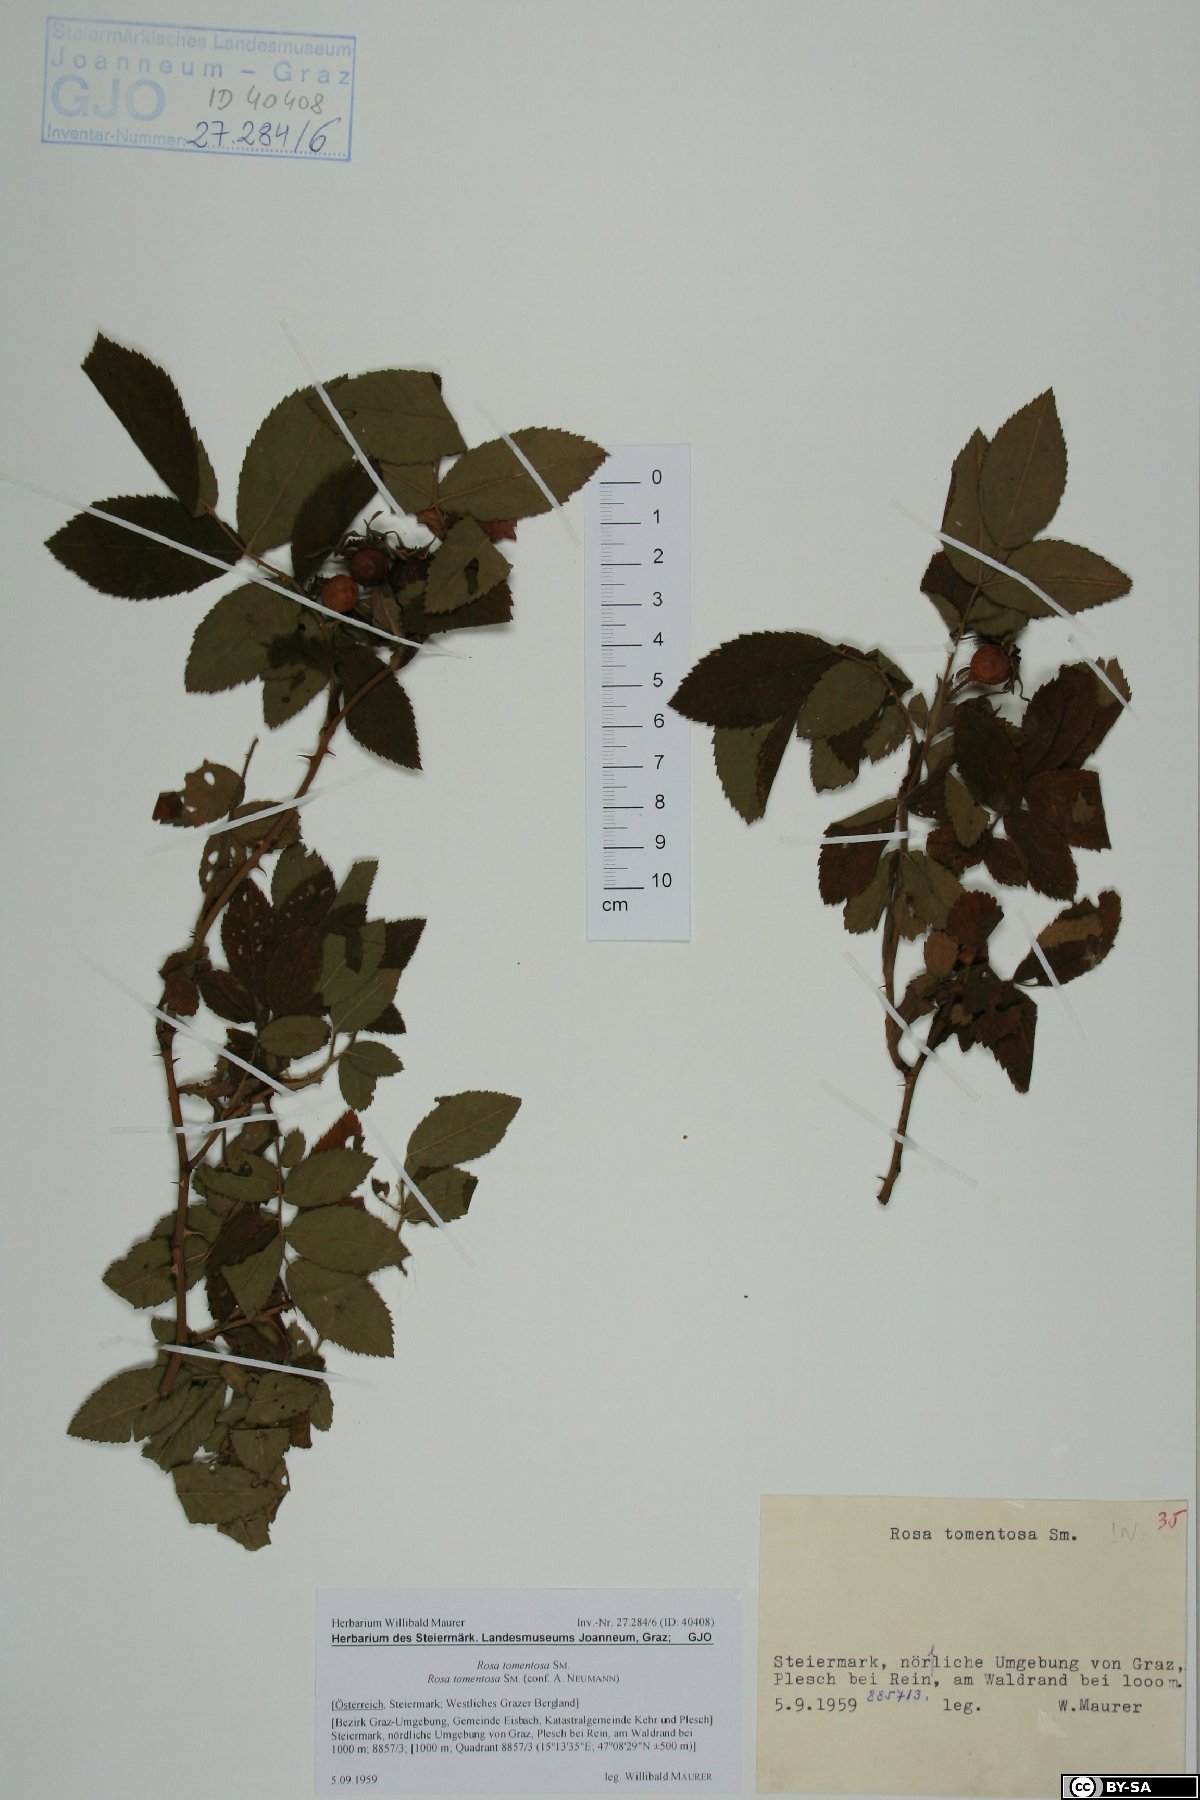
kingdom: Plantae
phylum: Tracheophyta
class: Magnoliopsida
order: Rosales
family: Rosaceae
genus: Rosa
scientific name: Rosa tomentosa
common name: Downy rose
